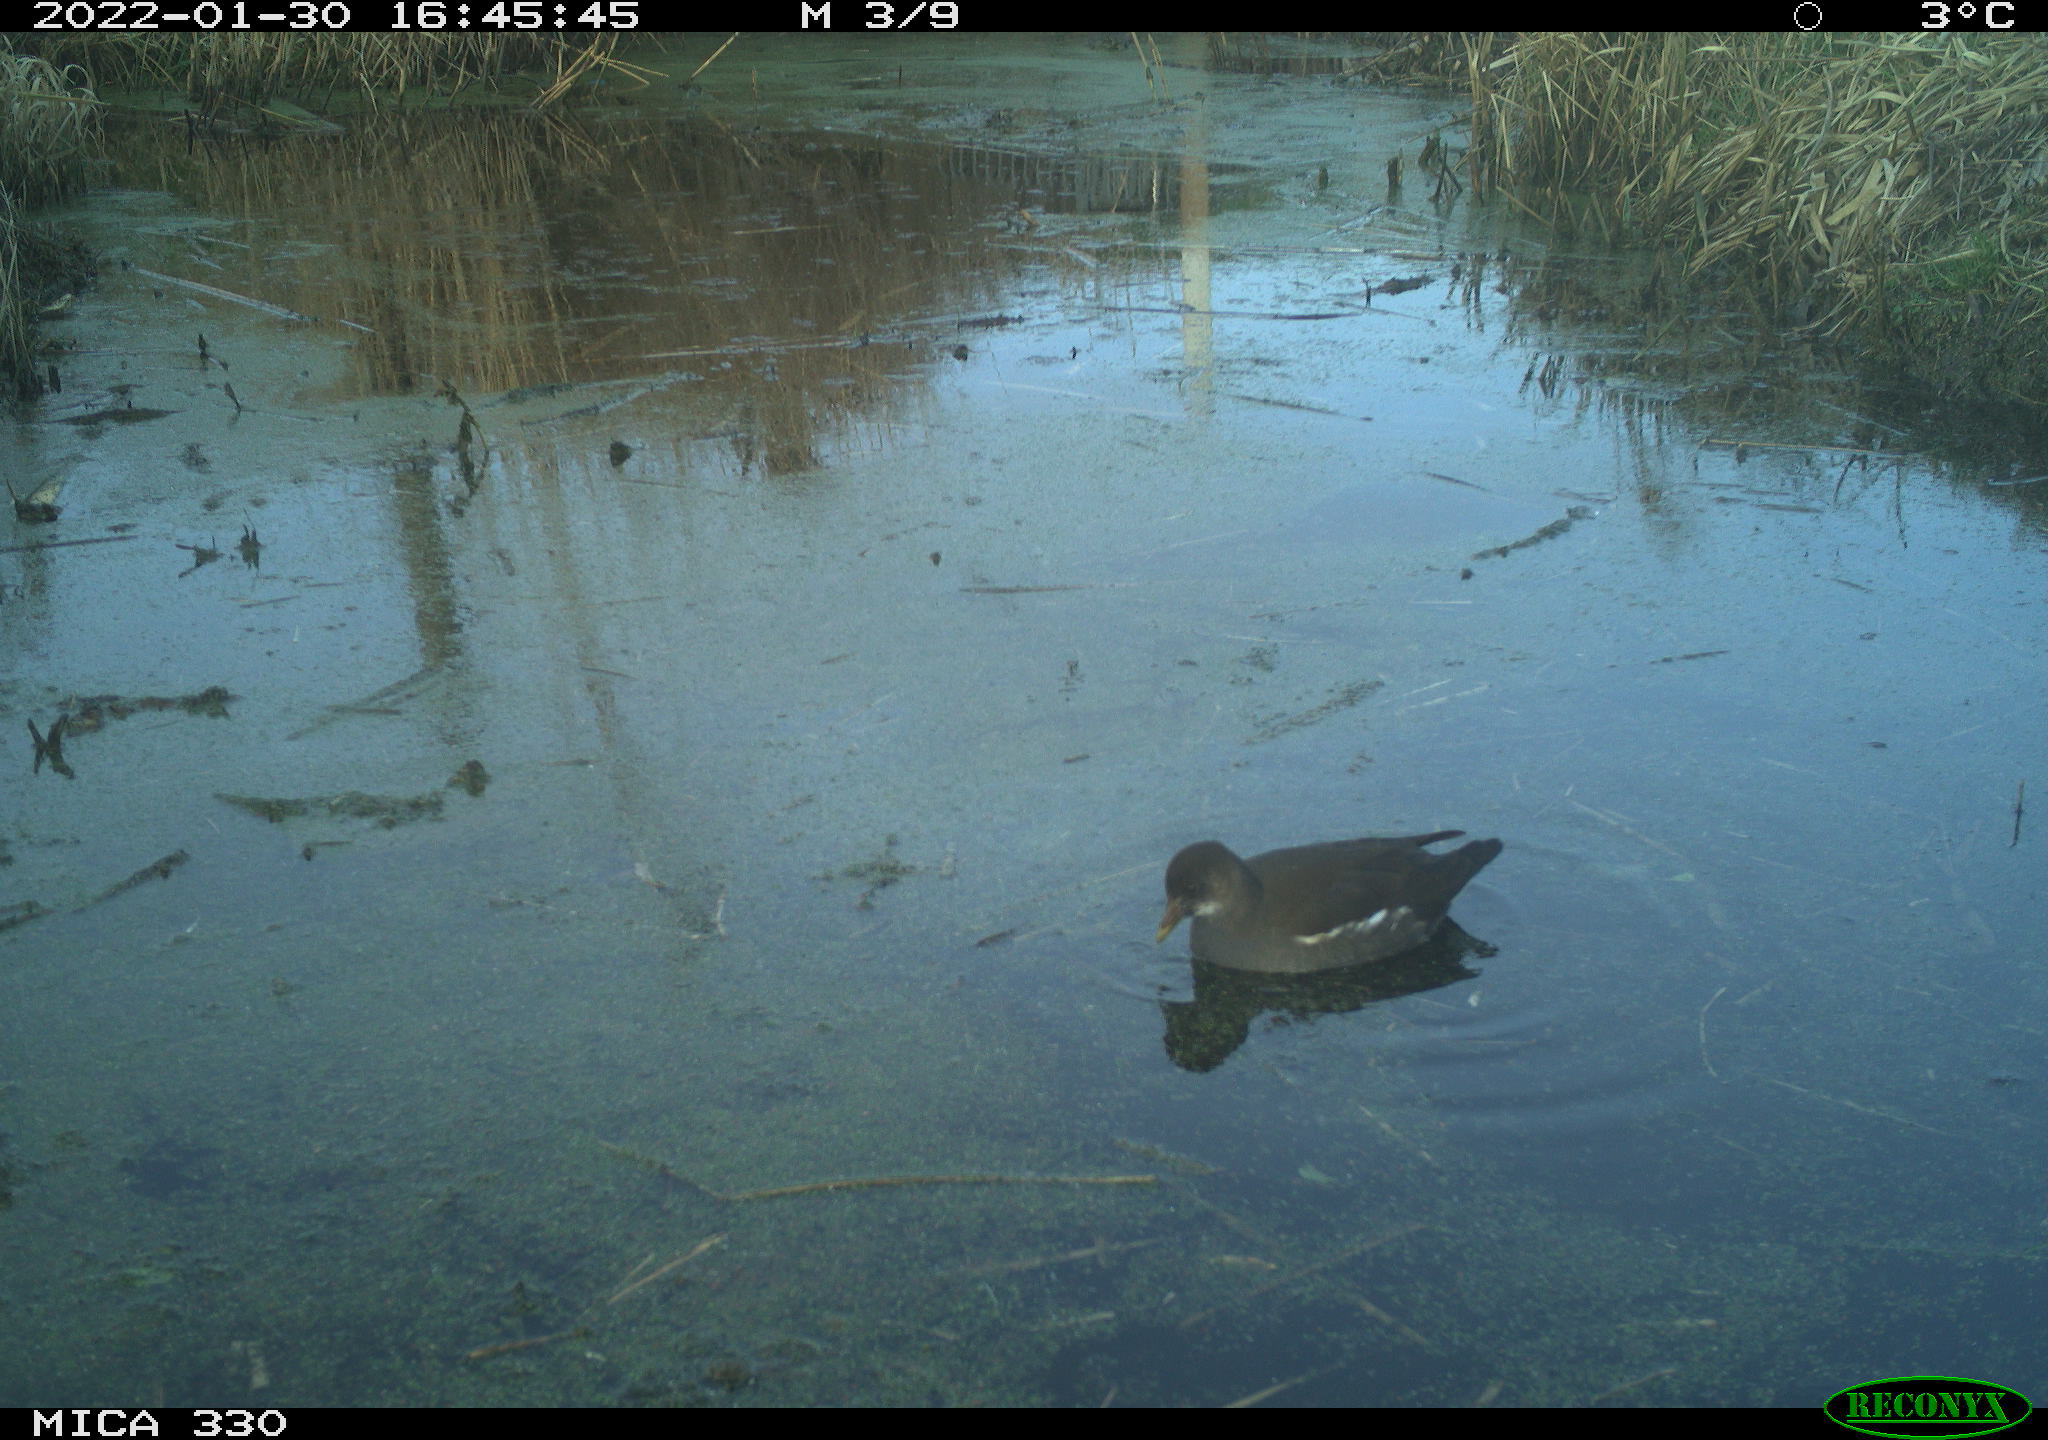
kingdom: Animalia
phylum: Chordata
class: Aves
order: Gruiformes
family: Rallidae
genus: Gallinula
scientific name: Gallinula chloropus
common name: Common moorhen
